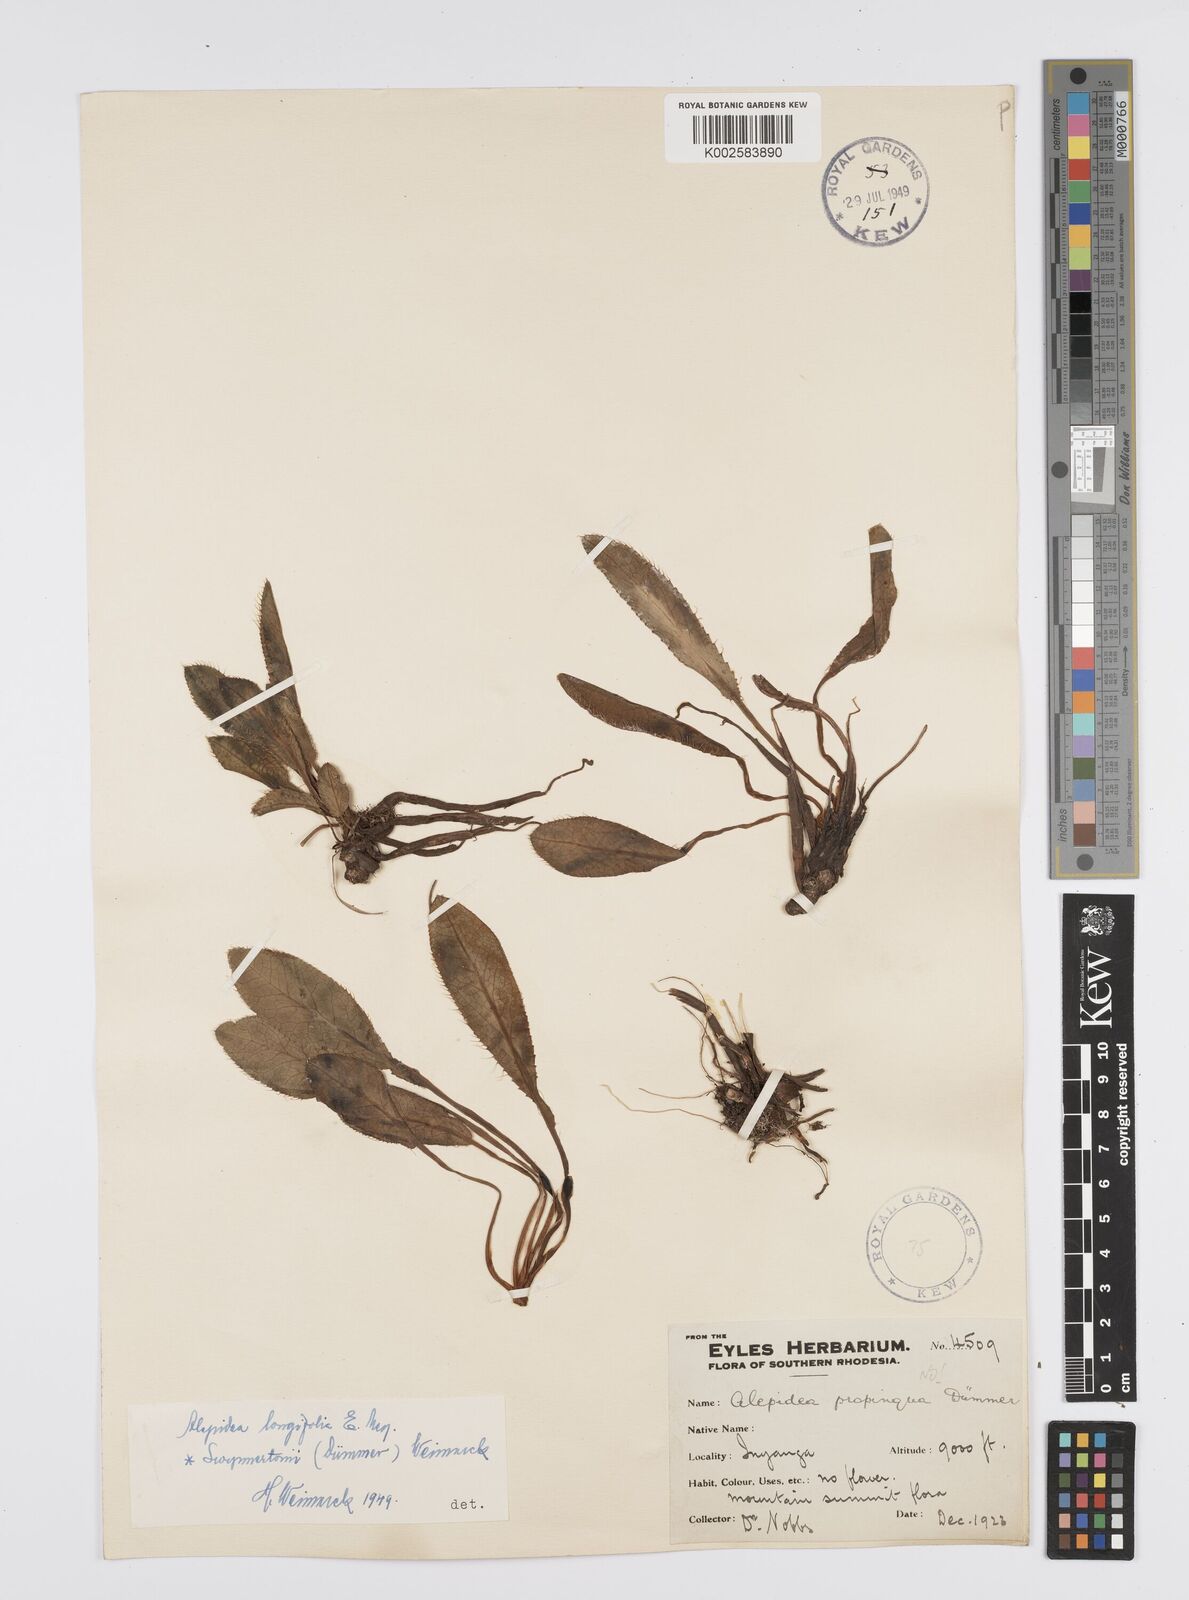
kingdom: Plantae
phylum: Tracheophyta
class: Magnoliopsida
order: Apiales
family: Apiaceae
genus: Alepidea
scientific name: Alepidea
